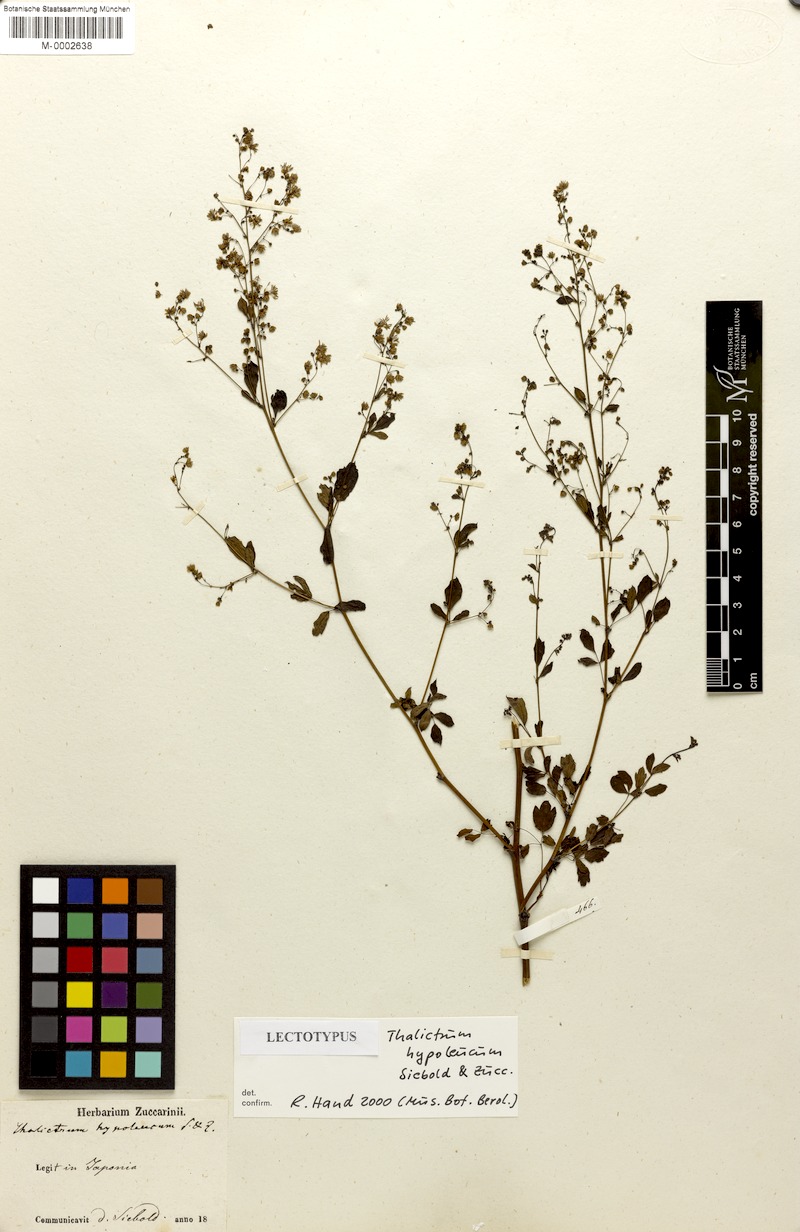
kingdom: Plantae
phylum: Tracheophyta
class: Magnoliopsida
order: Ranunculales
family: Ranunculaceae
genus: Thalictrum
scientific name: Thalictrum minus
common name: Lesser meadow-rue
